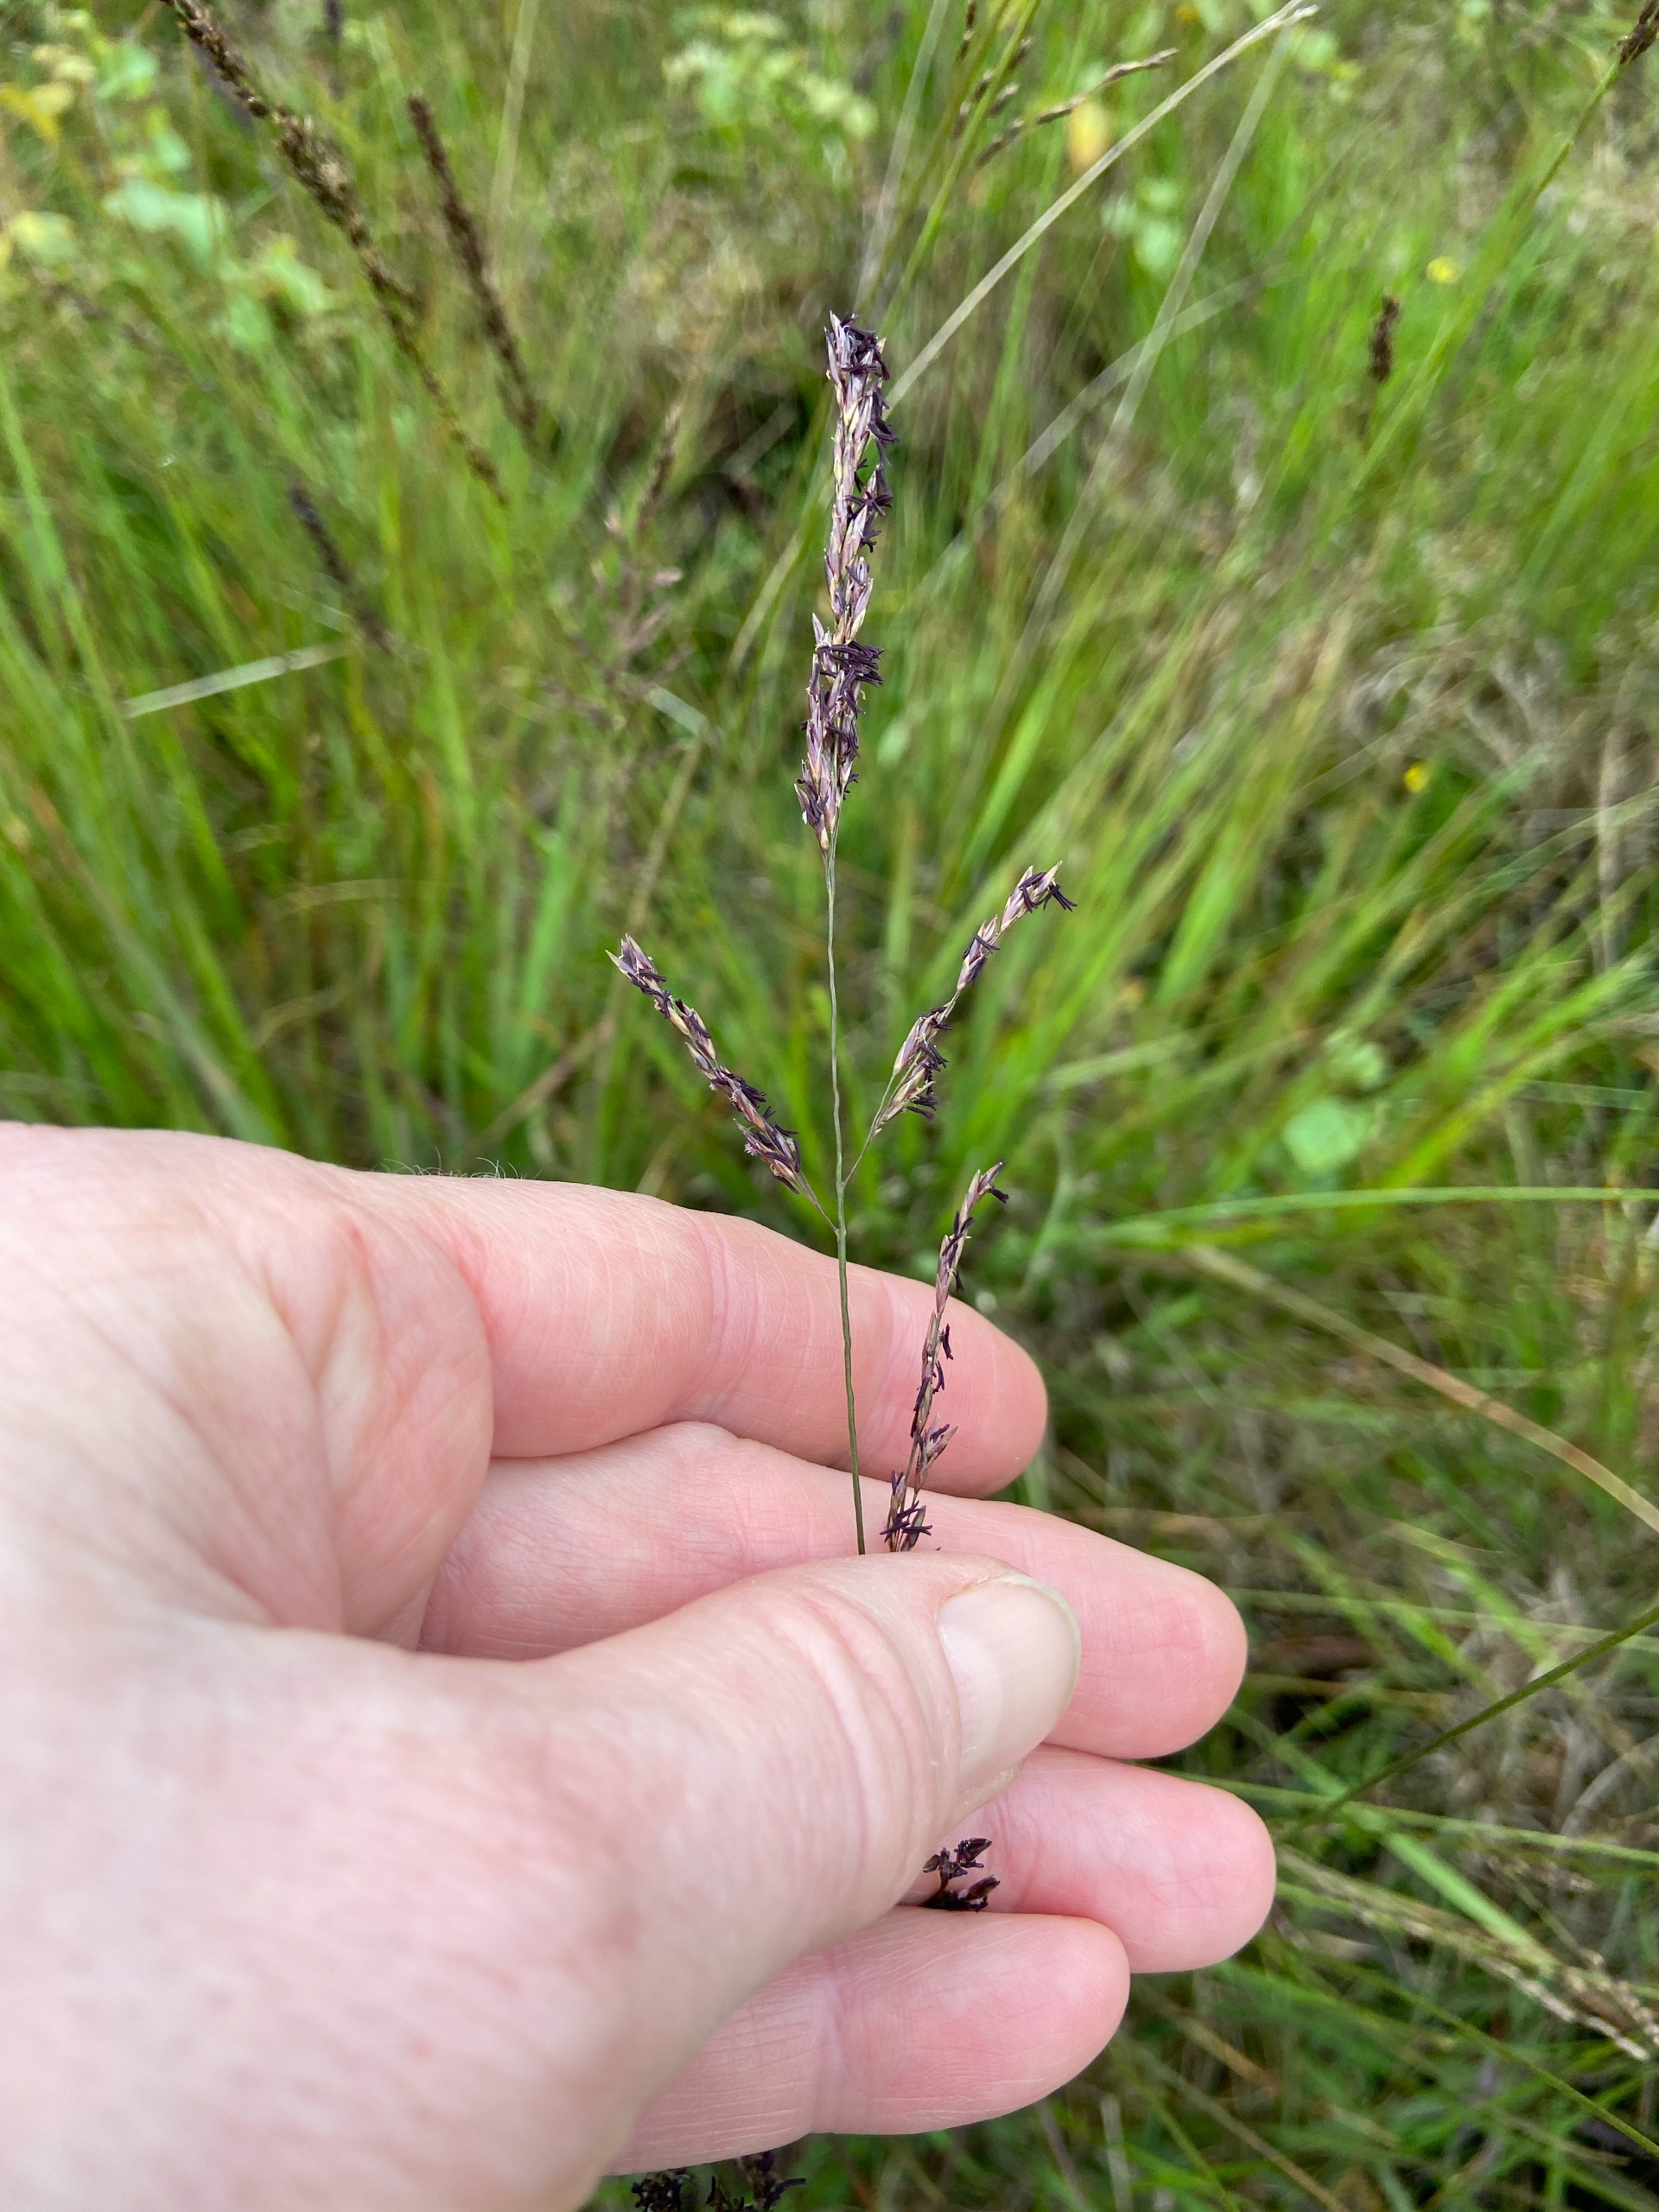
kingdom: Plantae
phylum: Tracheophyta
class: Liliopsida
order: Poales
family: Poaceae
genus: Molinia
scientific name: Molinia caerulea
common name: Blåtop
